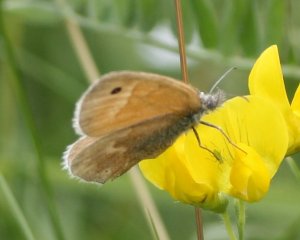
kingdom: Animalia
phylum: Arthropoda
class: Insecta
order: Lepidoptera
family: Nymphalidae
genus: Coenonympha
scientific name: Coenonympha tullia
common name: Large Heath
